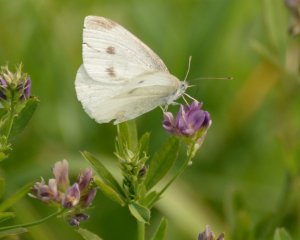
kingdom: Animalia
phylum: Arthropoda
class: Insecta
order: Lepidoptera
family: Pieridae
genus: Pieris
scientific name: Pieris rapae
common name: Cabbage White
